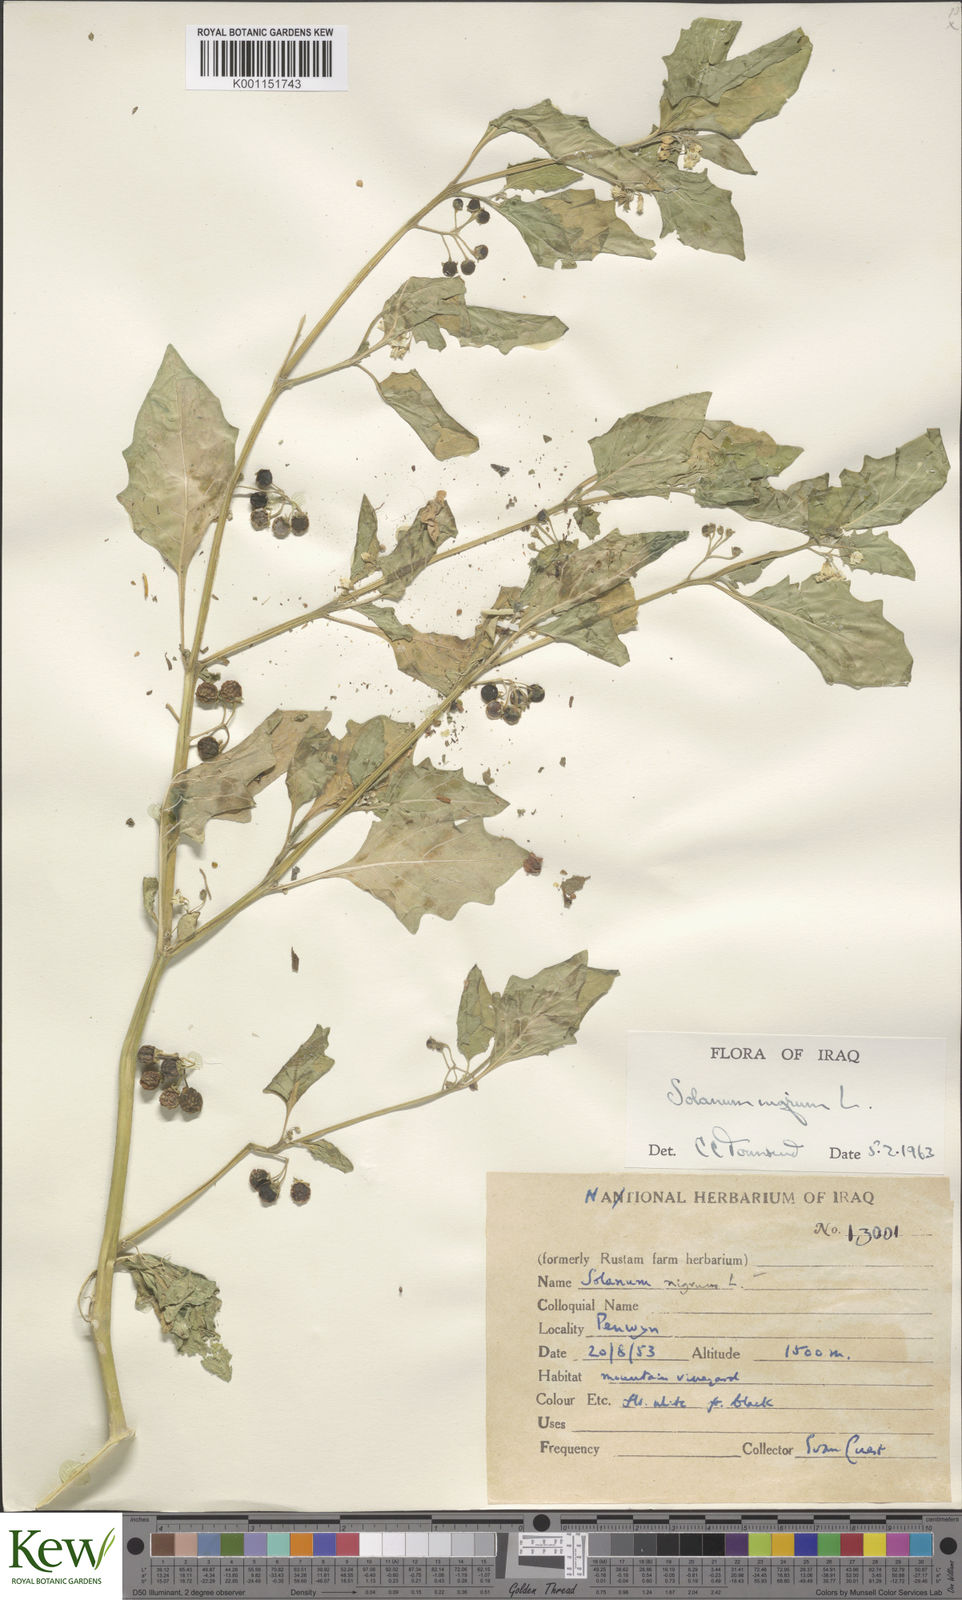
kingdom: Plantae
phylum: Tracheophyta
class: Magnoliopsida
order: Solanales
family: Solanaceae
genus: Solanum
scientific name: Solanum nigrum
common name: Black nightshade
